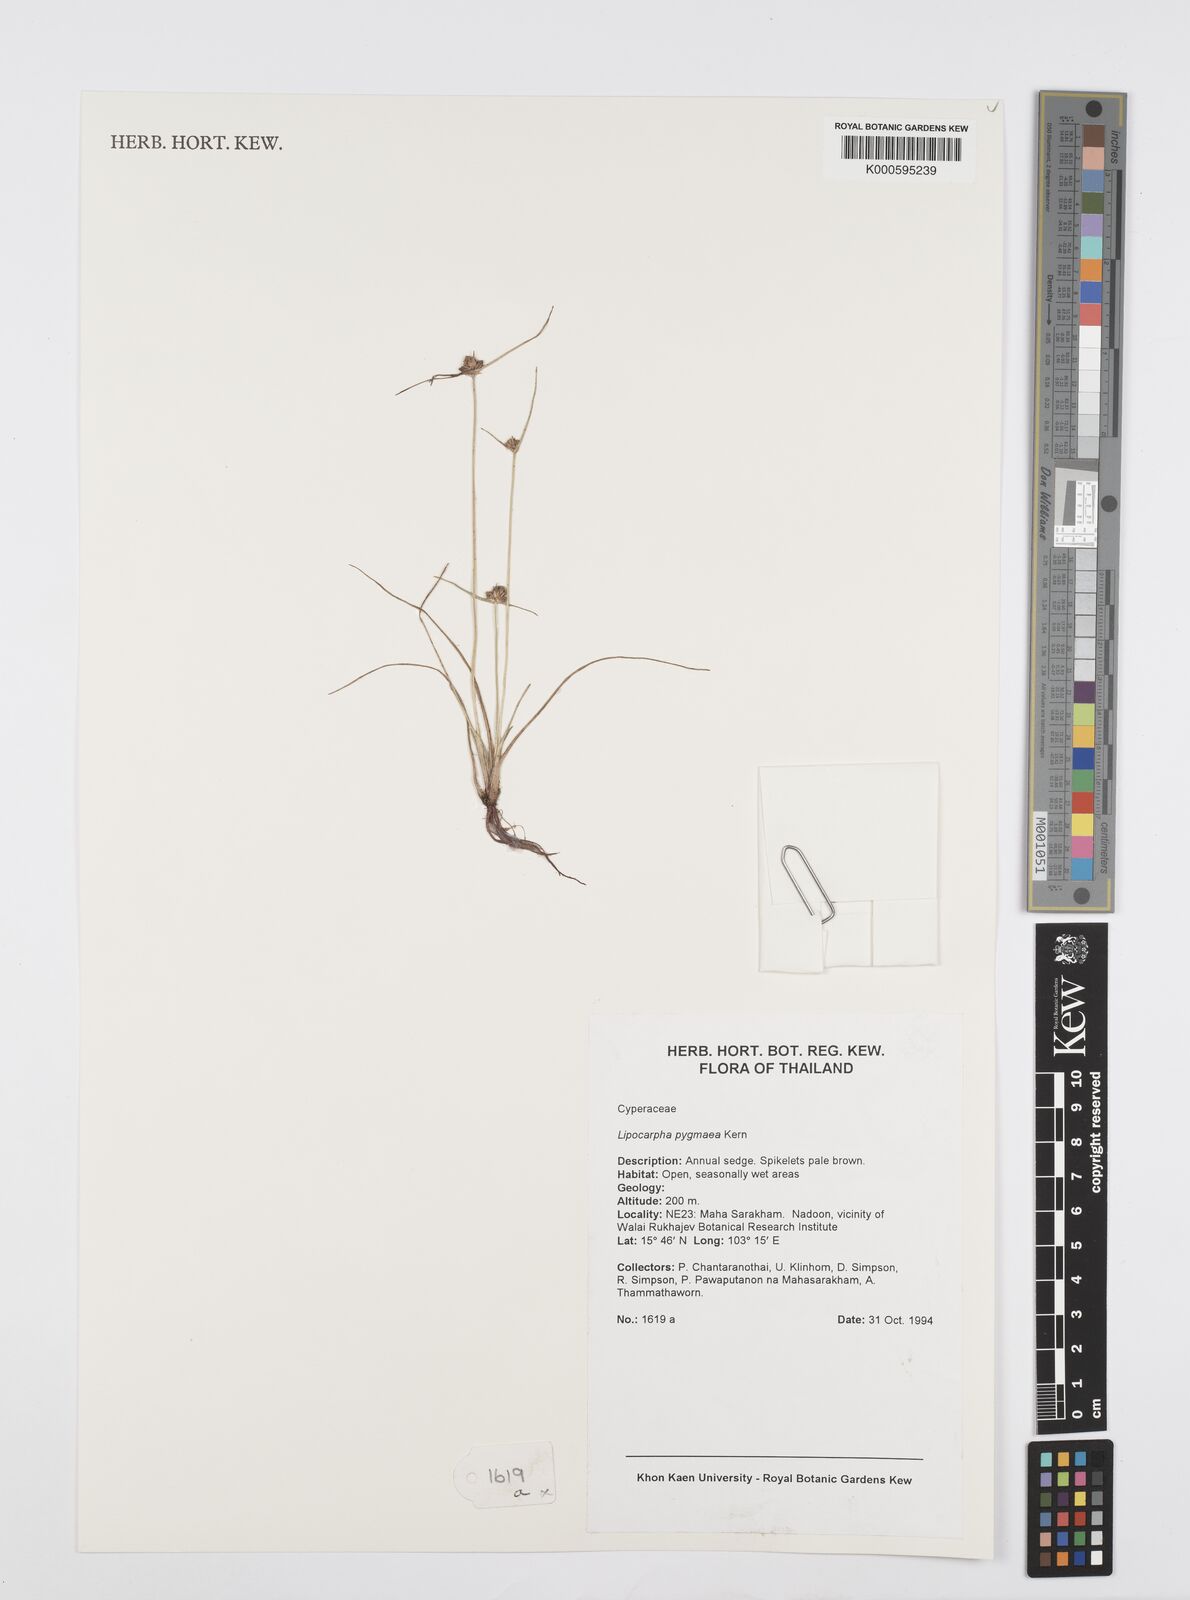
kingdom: Plantae
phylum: Tracheophyta
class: Liliopsida
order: Poales
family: Cyperaceae
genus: Cyperus
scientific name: Cyperus lipopygmaeus
